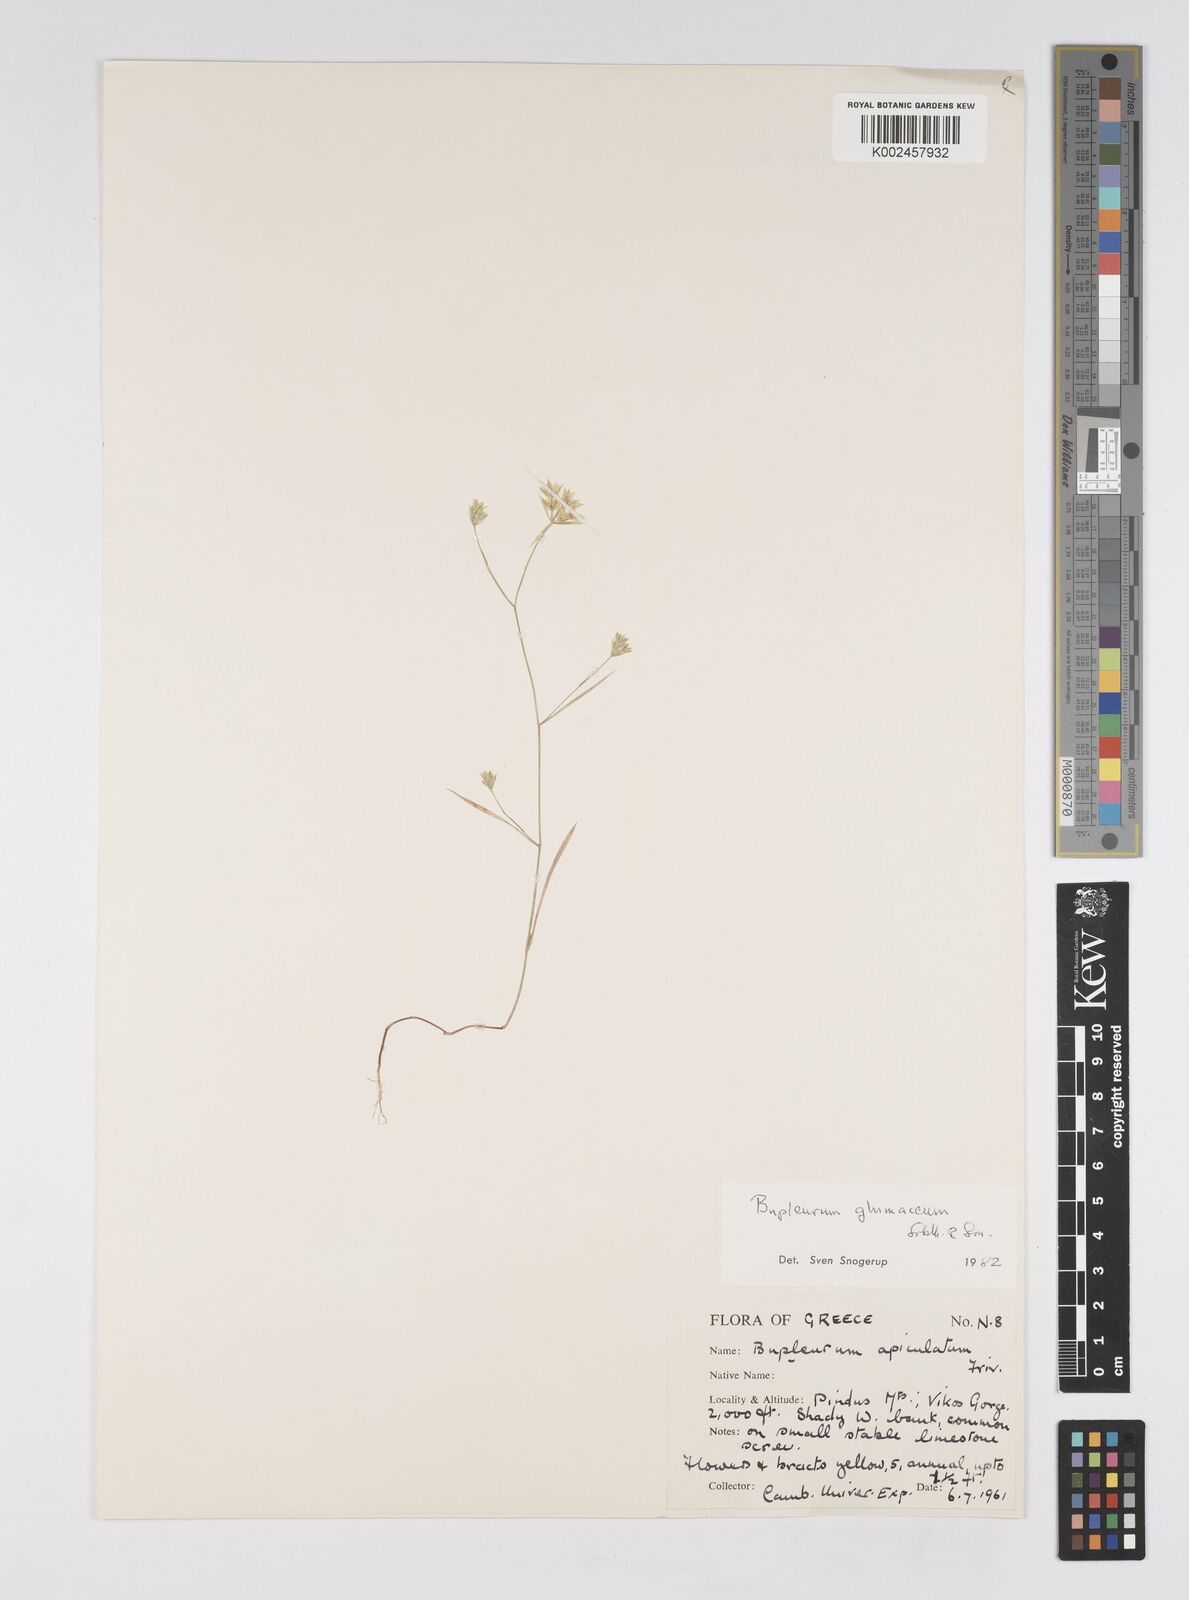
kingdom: Plantae
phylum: Tracheophyta
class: Magnoliopsida
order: Apiales
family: Apiaceae
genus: Bupleurum
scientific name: Bupleurum glumaceum
